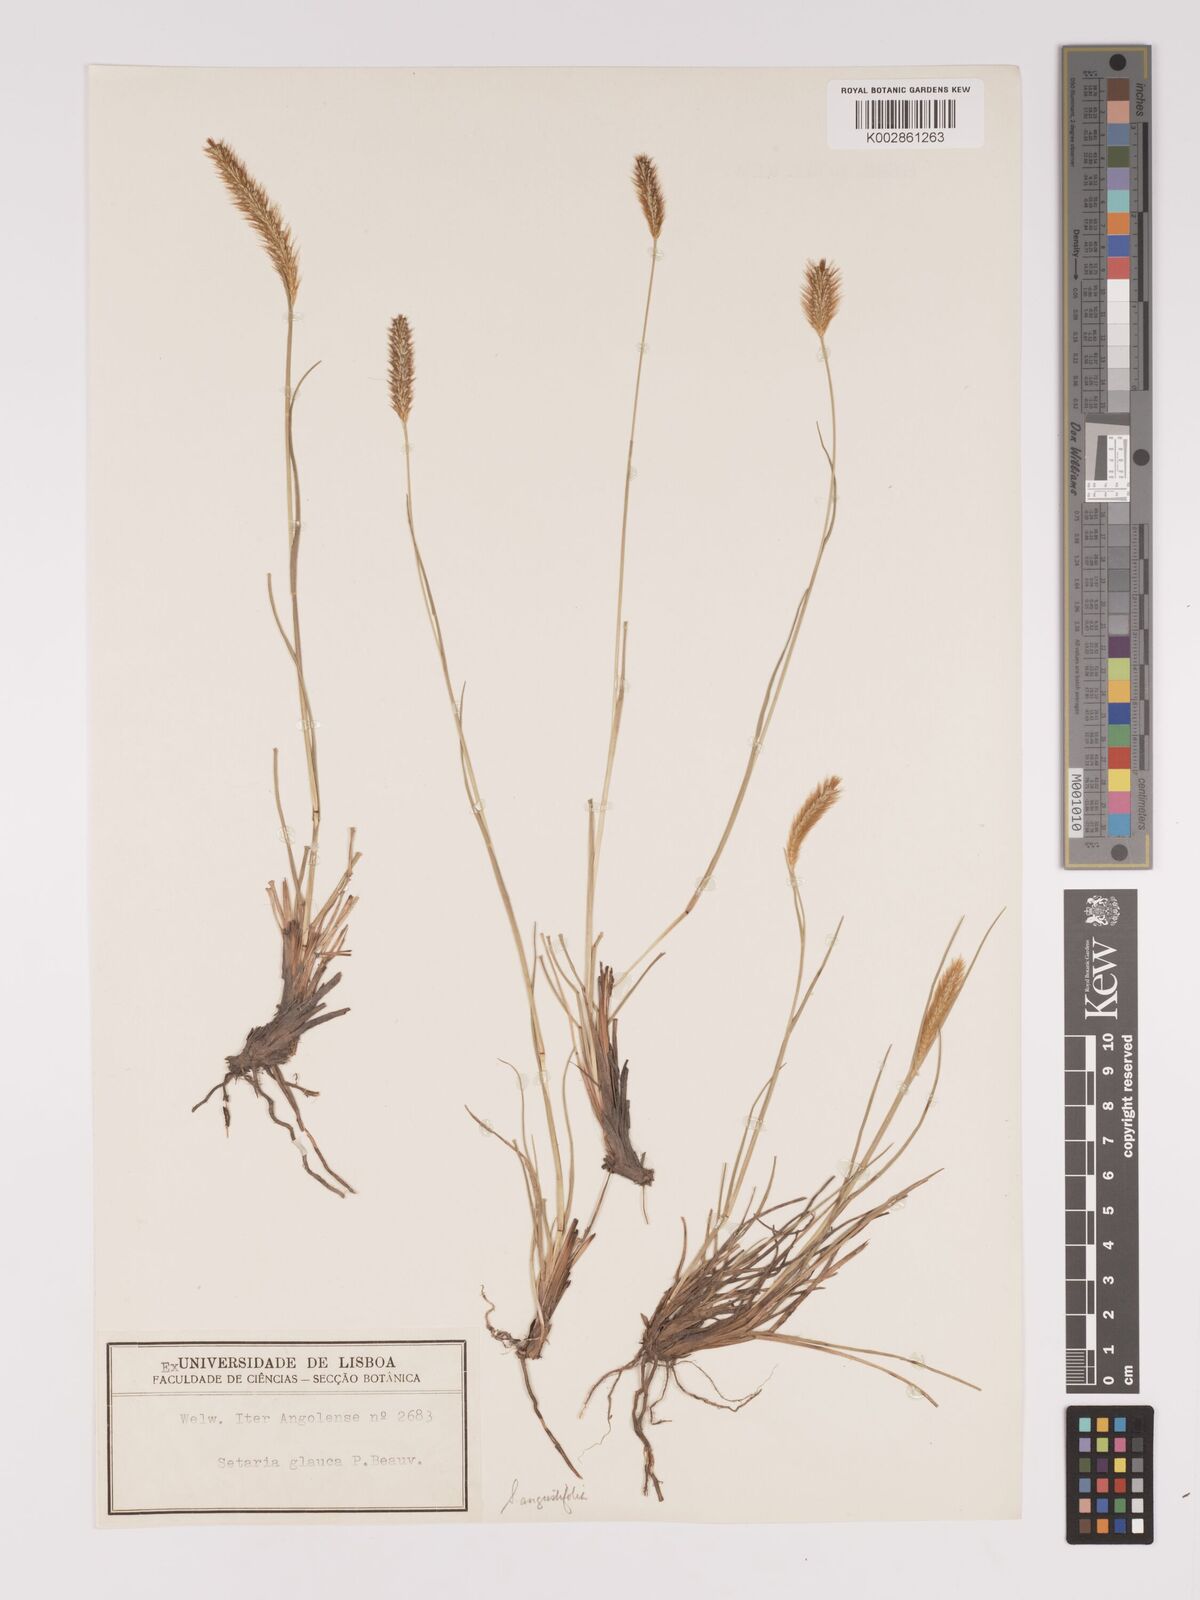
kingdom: Plantae
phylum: Tracheophyta
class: Liliopsida
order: Poales
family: Poaceae
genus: Setaria
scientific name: Setaria sphacelata
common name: African bristlegrass
